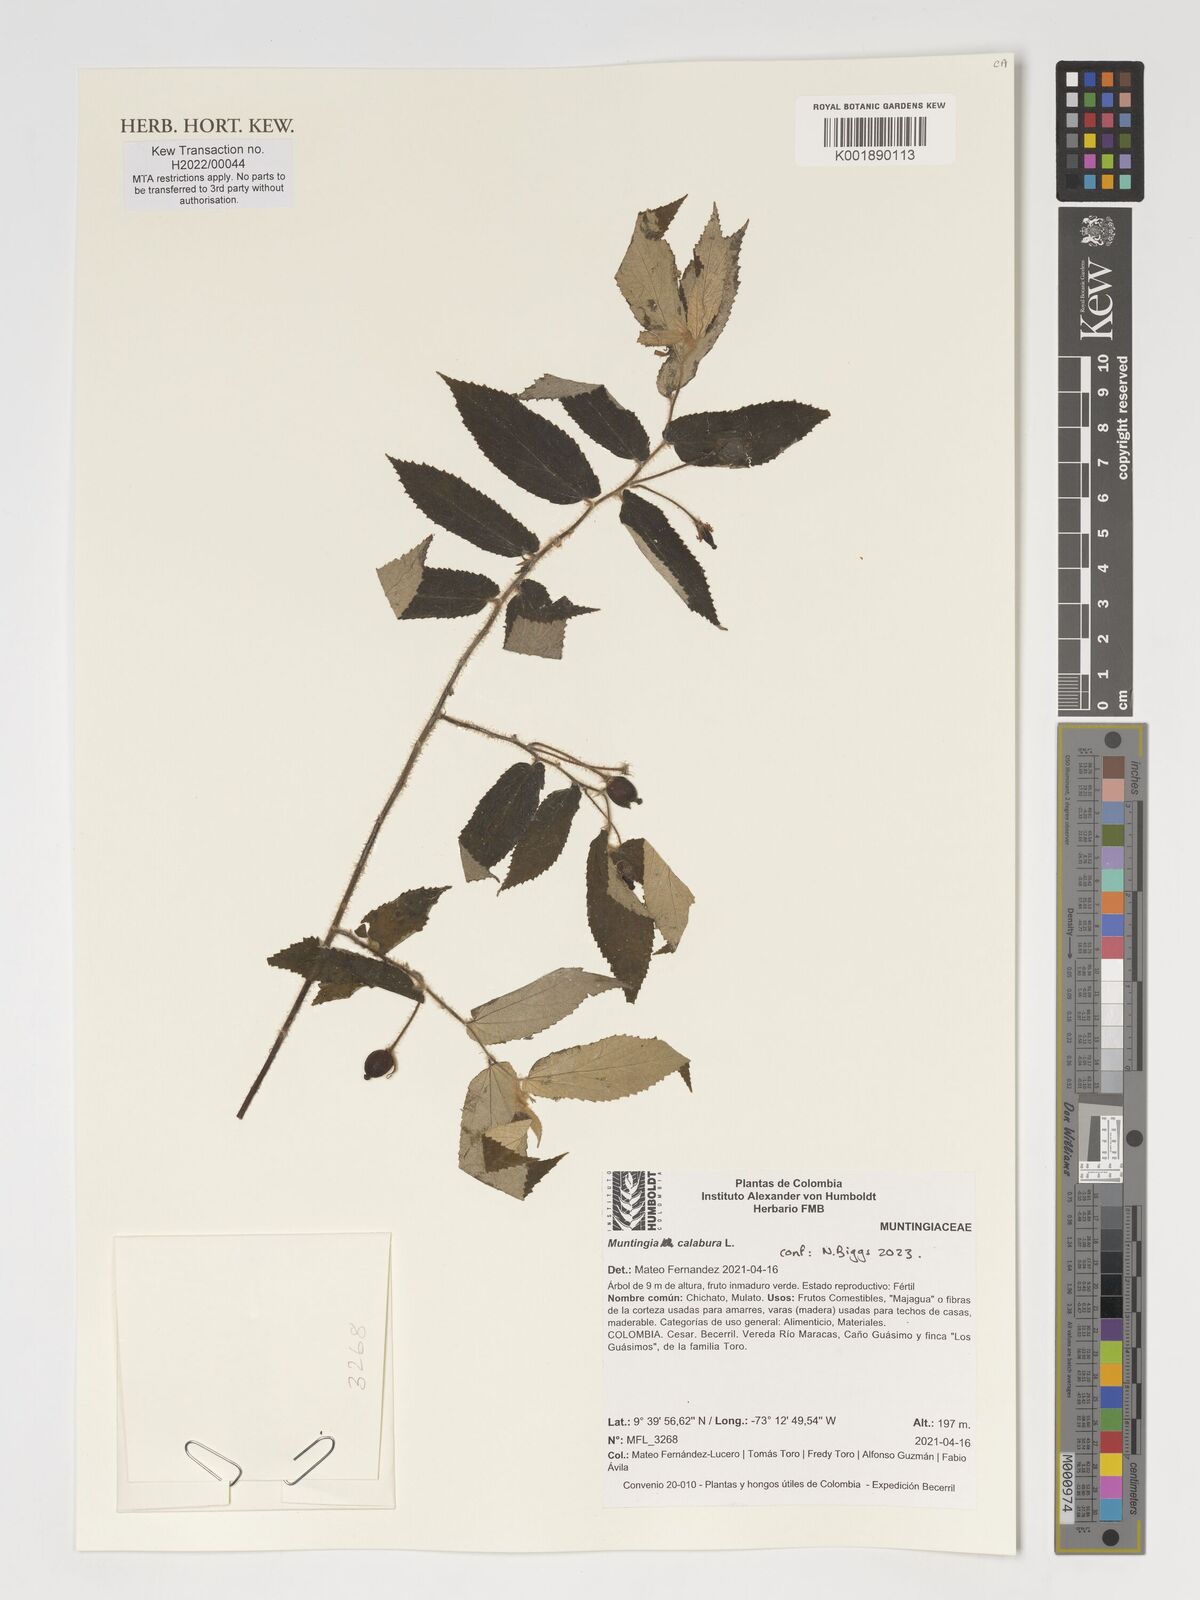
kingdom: Plantae
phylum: Tracheophyta
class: Magnoliopsida
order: Malvales
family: Muntingiaceae
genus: Muntingia
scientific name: Muntingia calabura
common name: Strawberrytree
